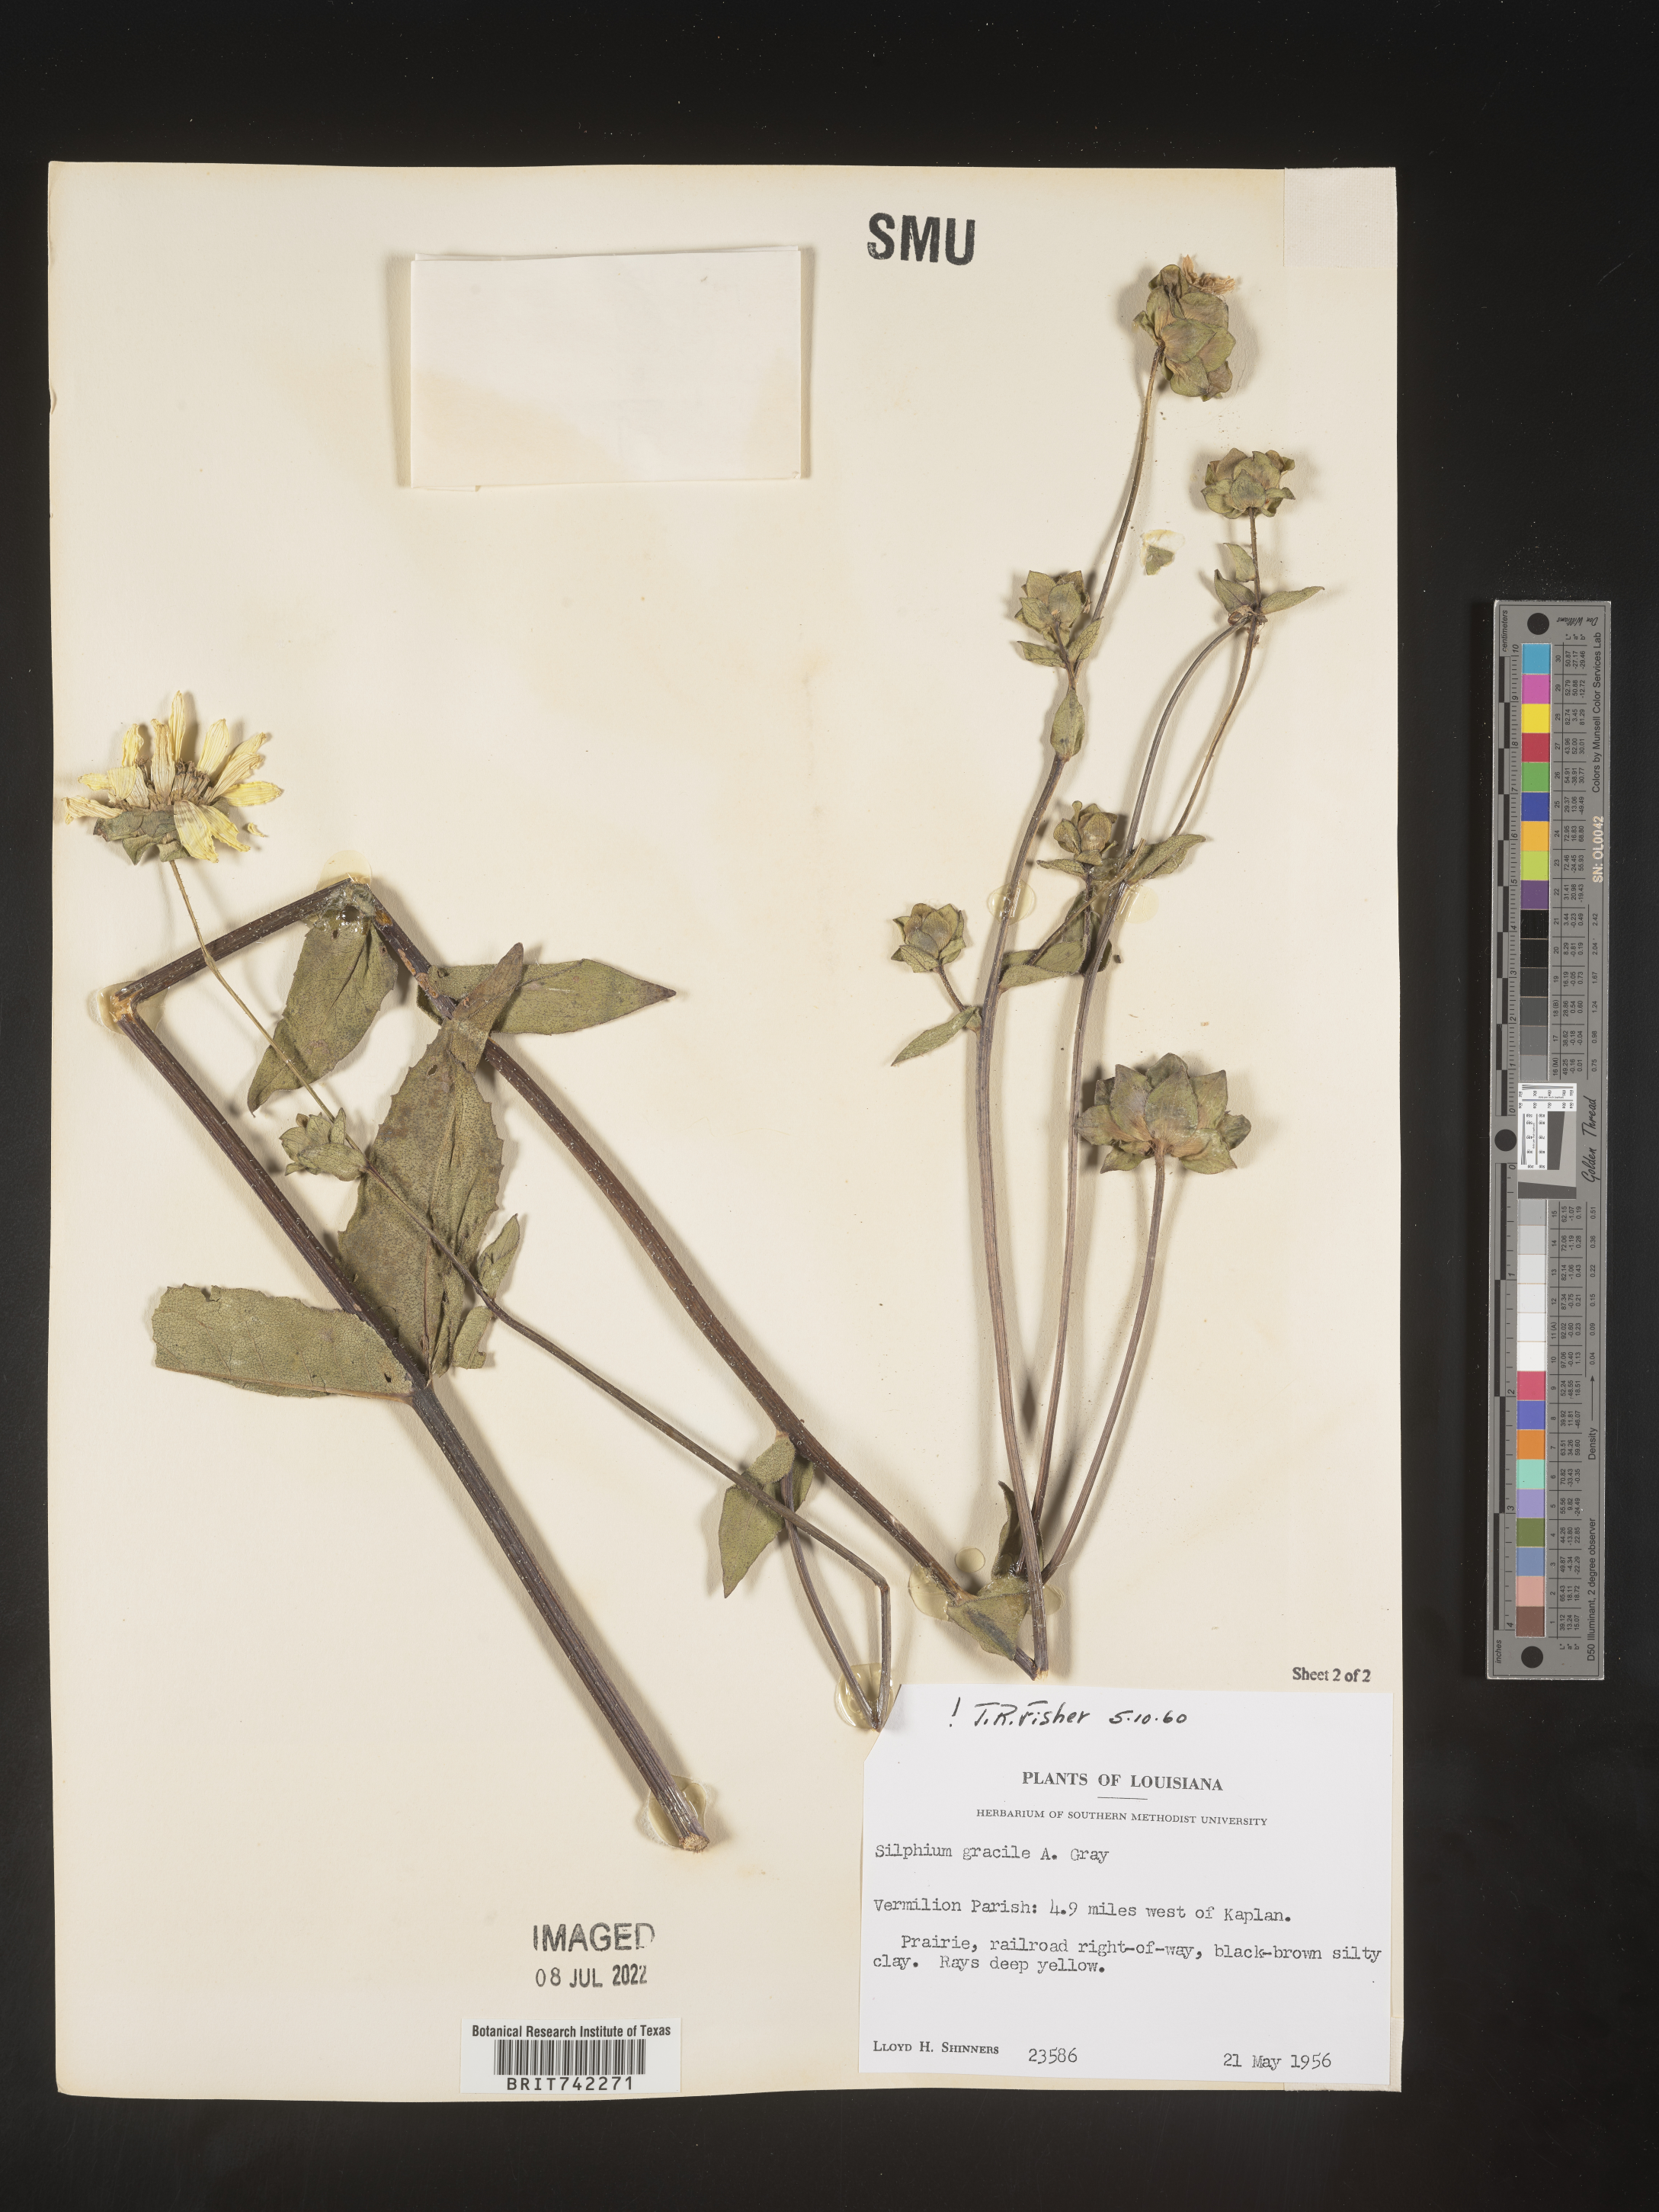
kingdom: Plantae
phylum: Tracheophyta
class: Magnoliopsida
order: Asterales
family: Asteraceae
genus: Silphium
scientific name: Silphium radula
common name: Roughleaf rosinweed
